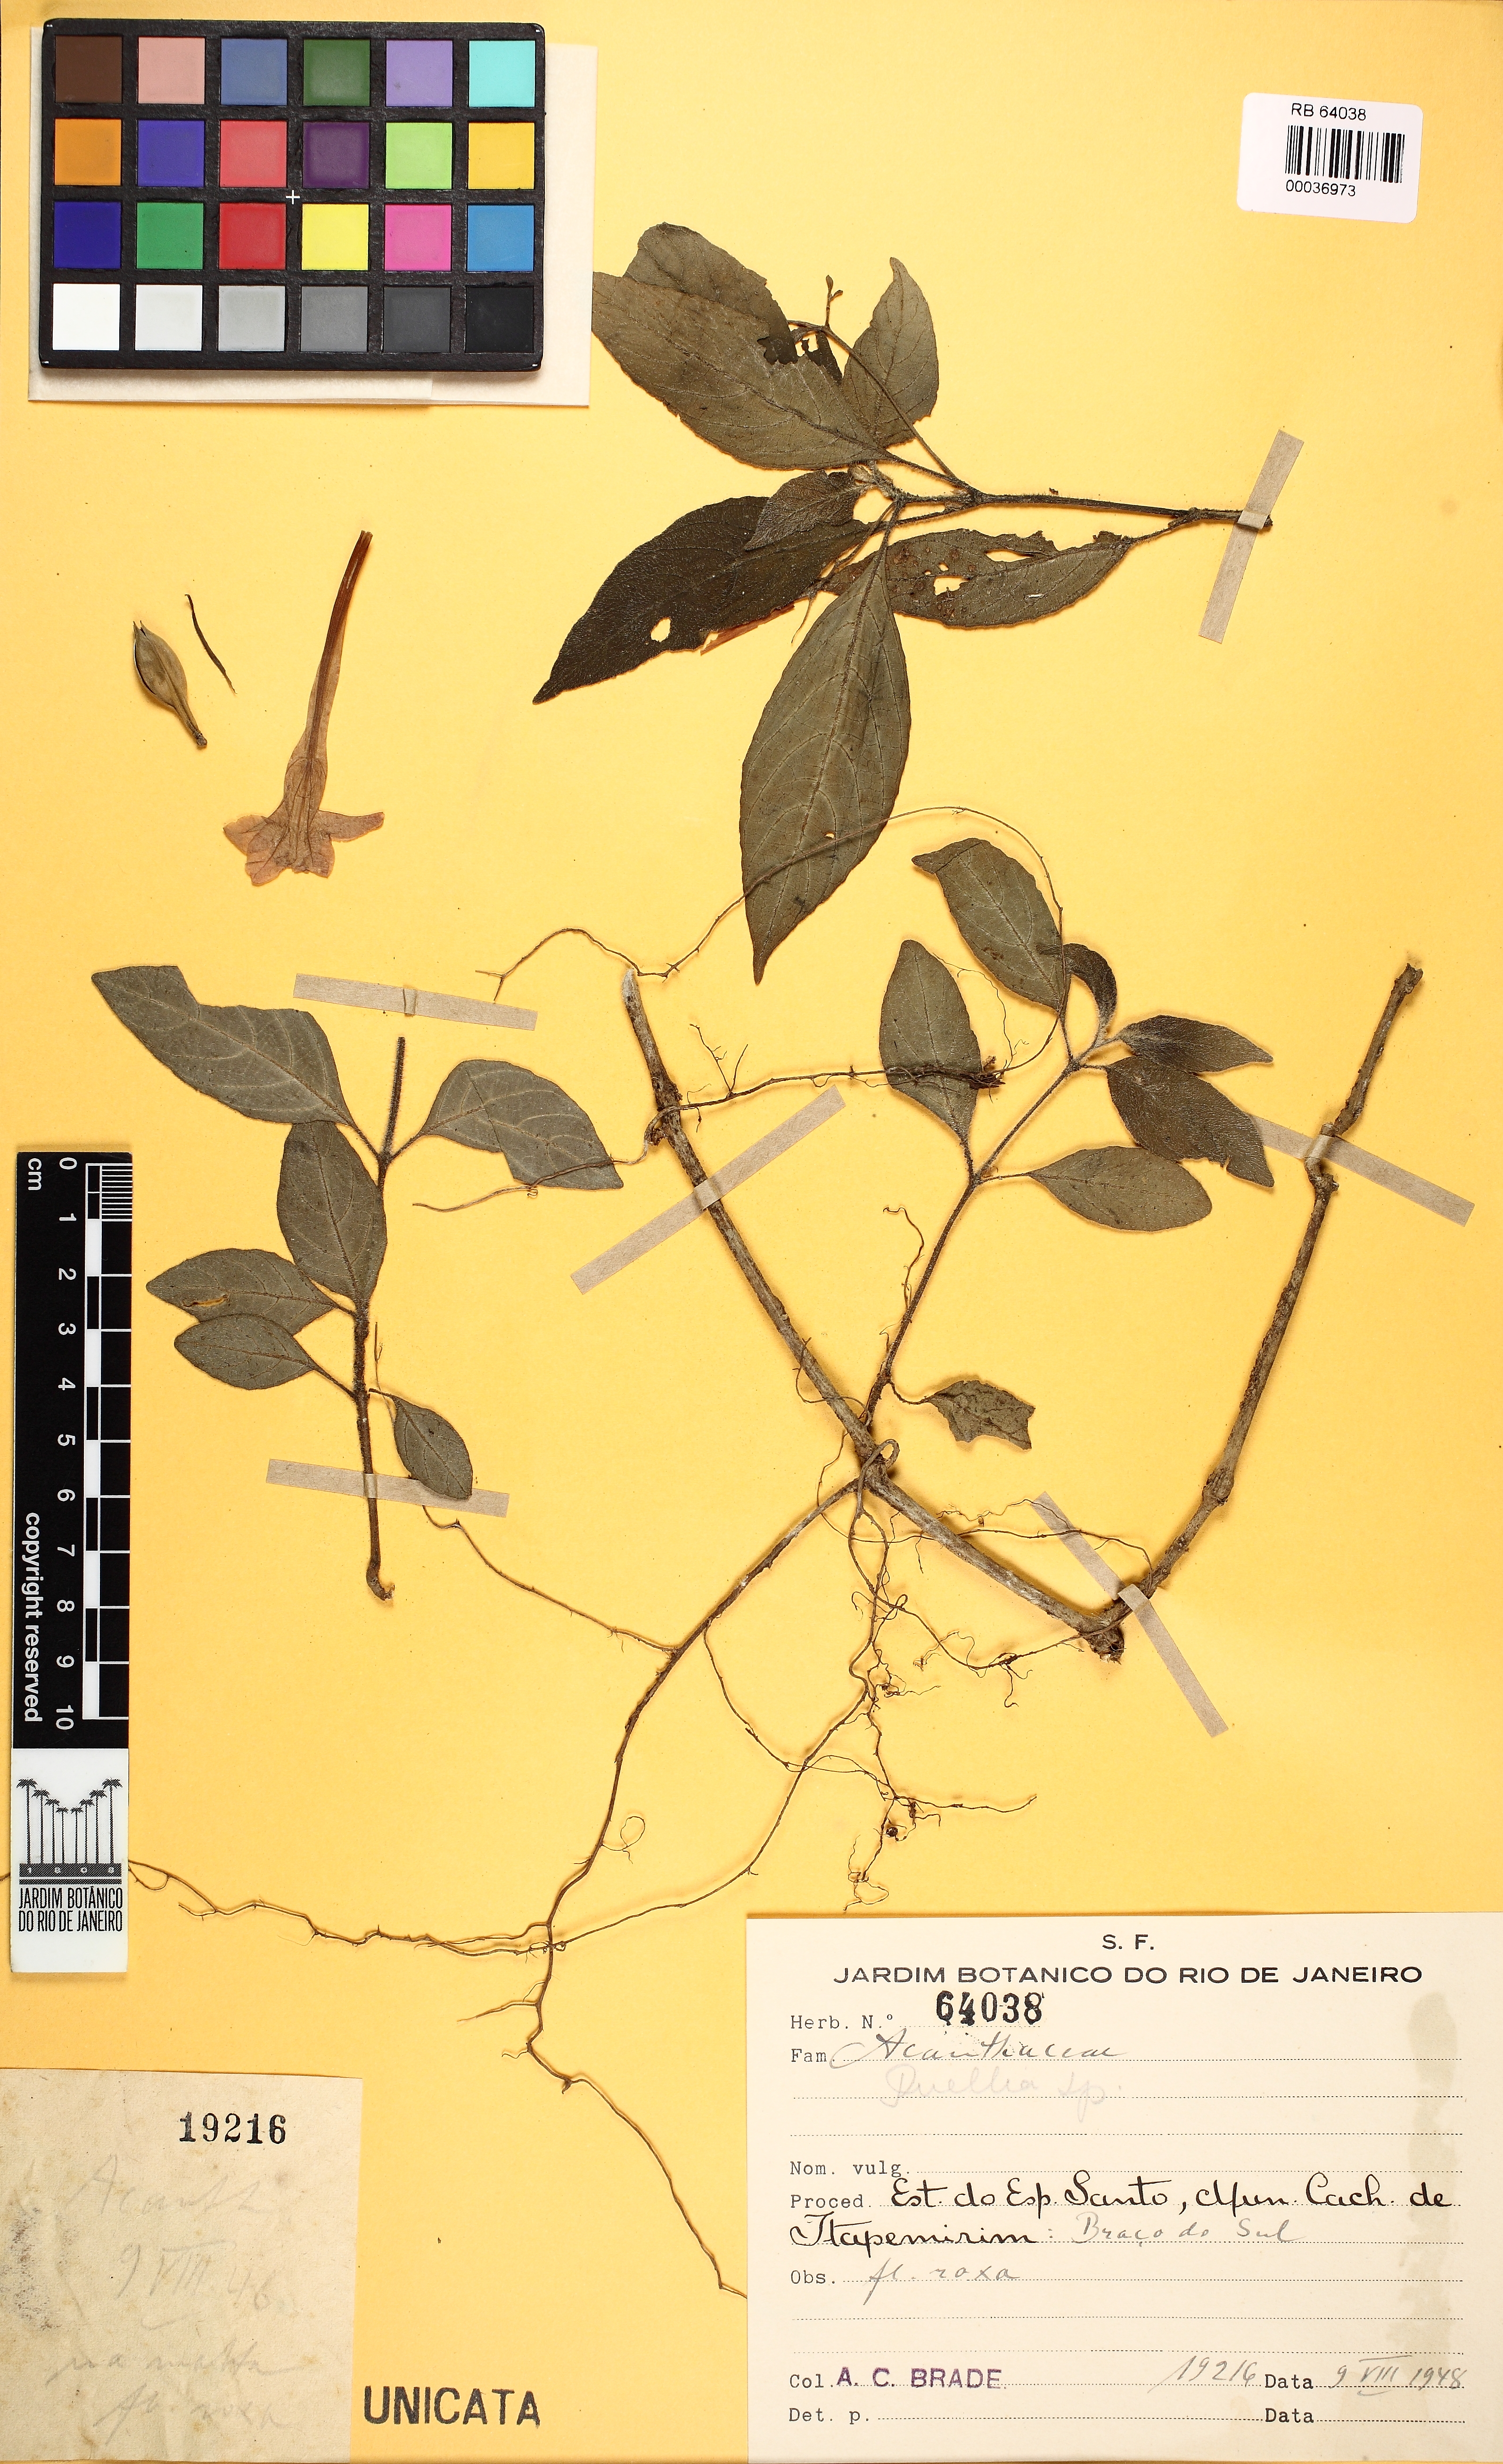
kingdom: Plantae
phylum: Tracheophyta
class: Magnoliopsida
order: Lamiales
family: Acanthaceae
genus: Ruellia
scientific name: Ruellia
